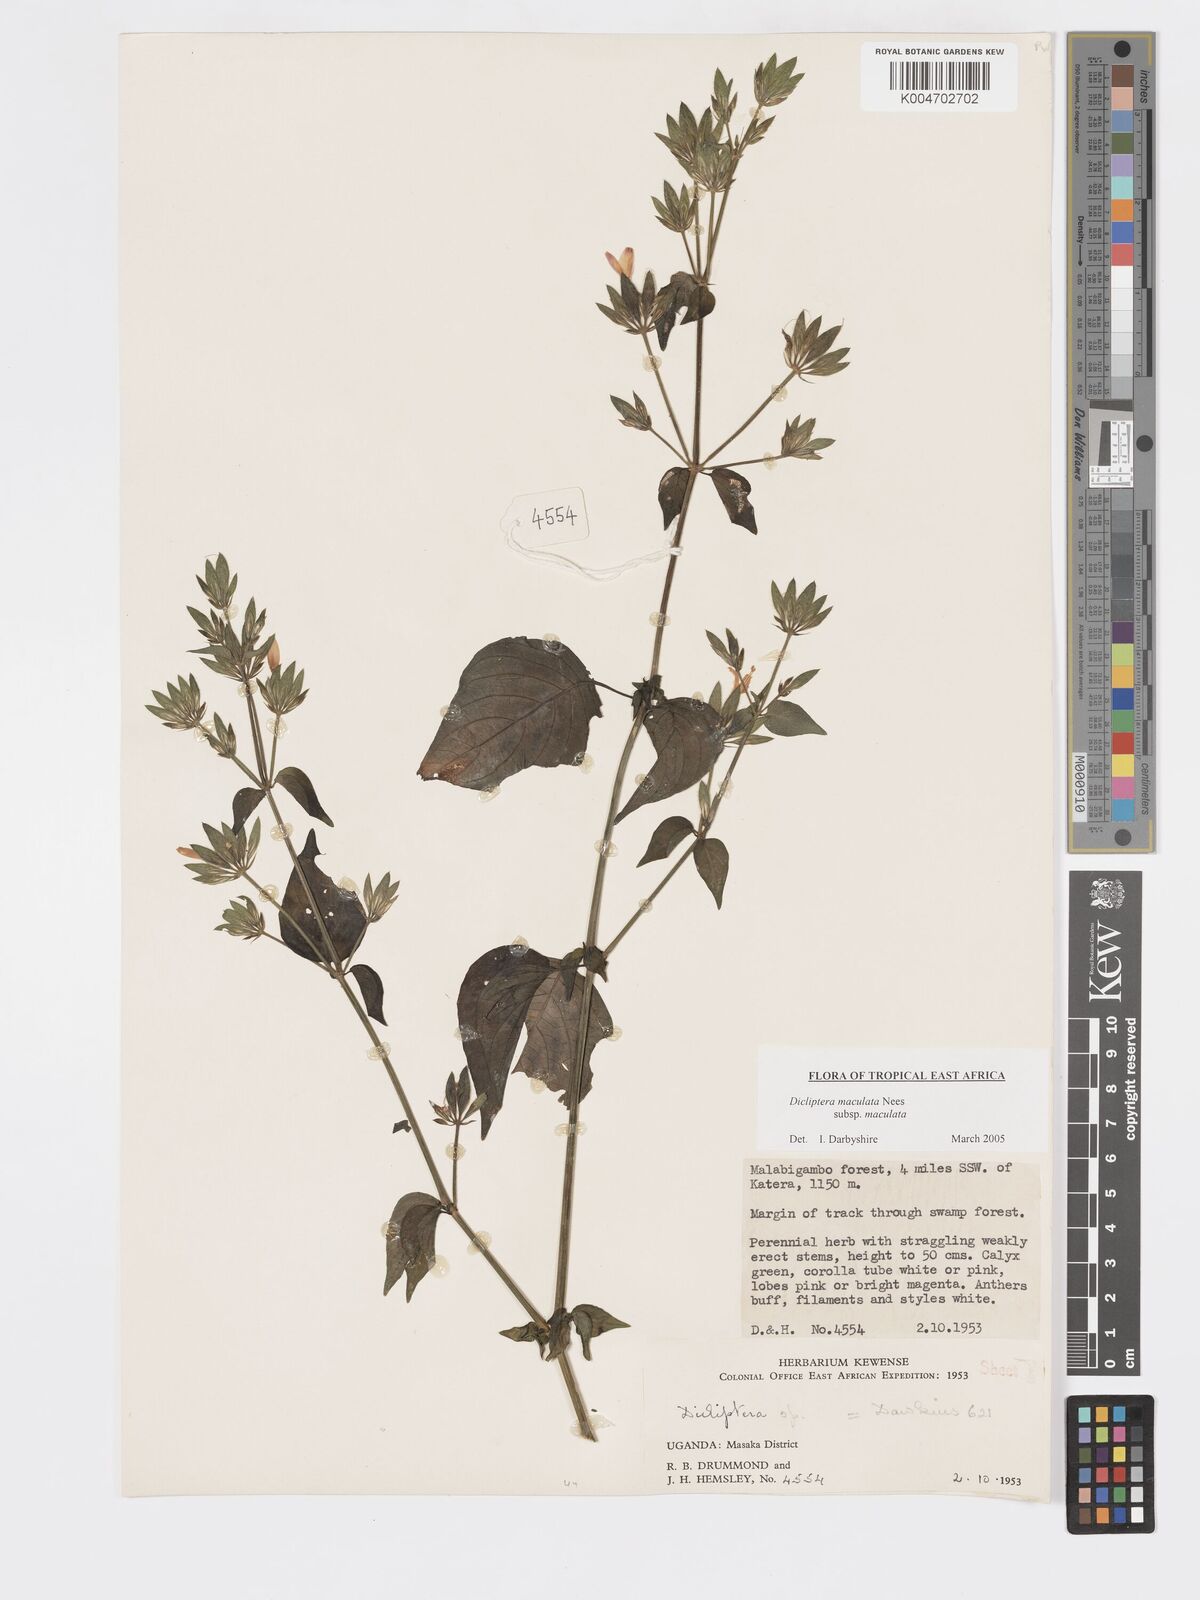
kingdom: Plantae
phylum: Tracheophyta
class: Magnoliopsida
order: Lamiales
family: Acanthaceae
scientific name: Acanthaceae
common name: Acanthaceae
